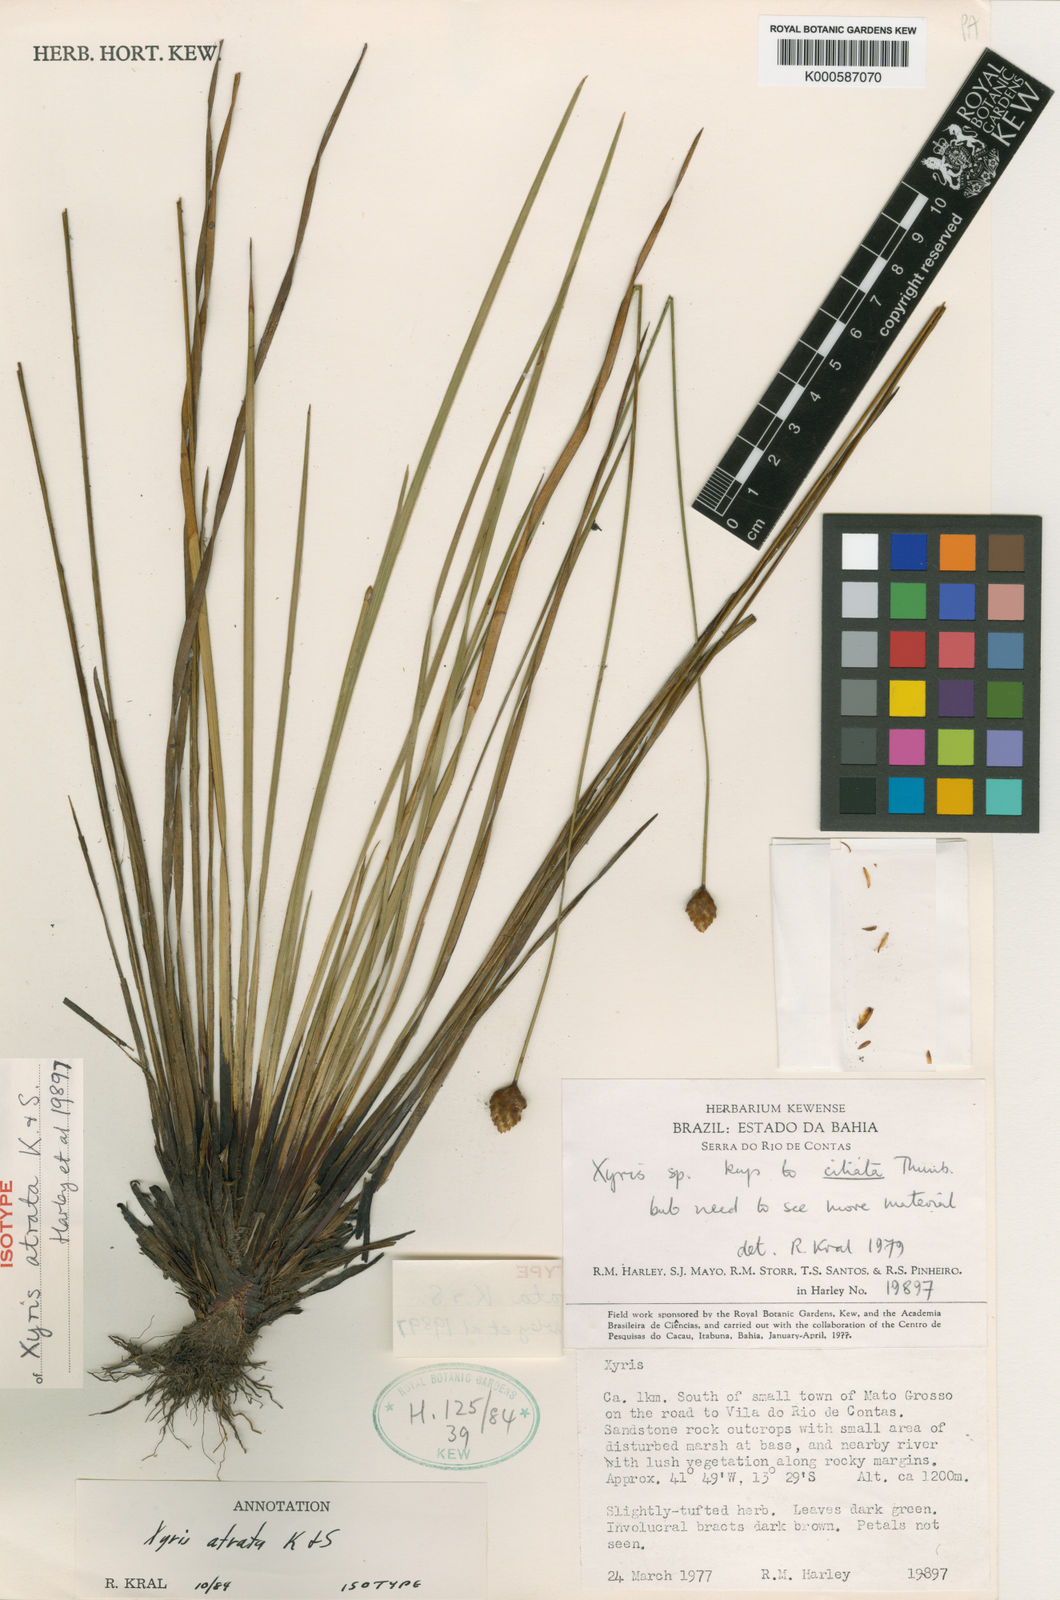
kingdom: Plantae
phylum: Tracheophyta
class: Liliopsida
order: Poales
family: Xyridaceae
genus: Xyris
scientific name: Xyris
